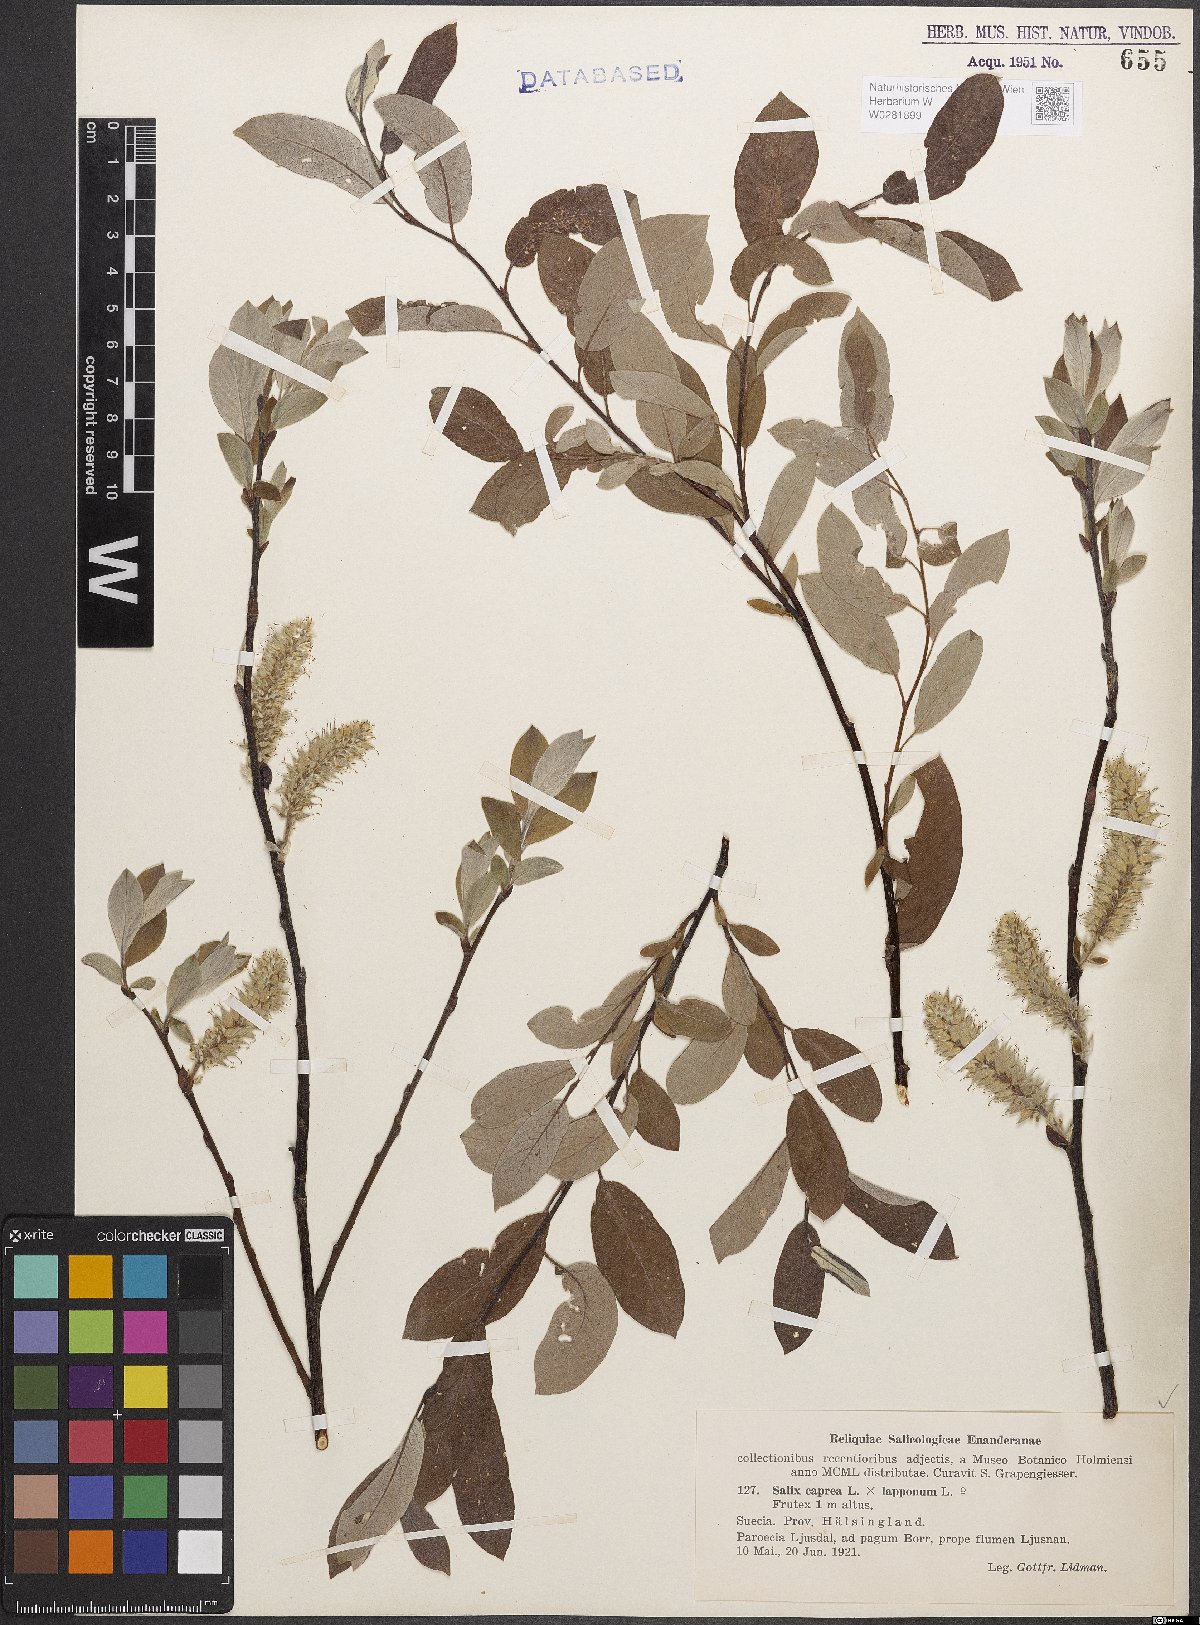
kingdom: Plantae
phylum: Tracheophyta
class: Magnoliopsida
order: Malpighiales
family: Salicaceae
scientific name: Salicaceae
